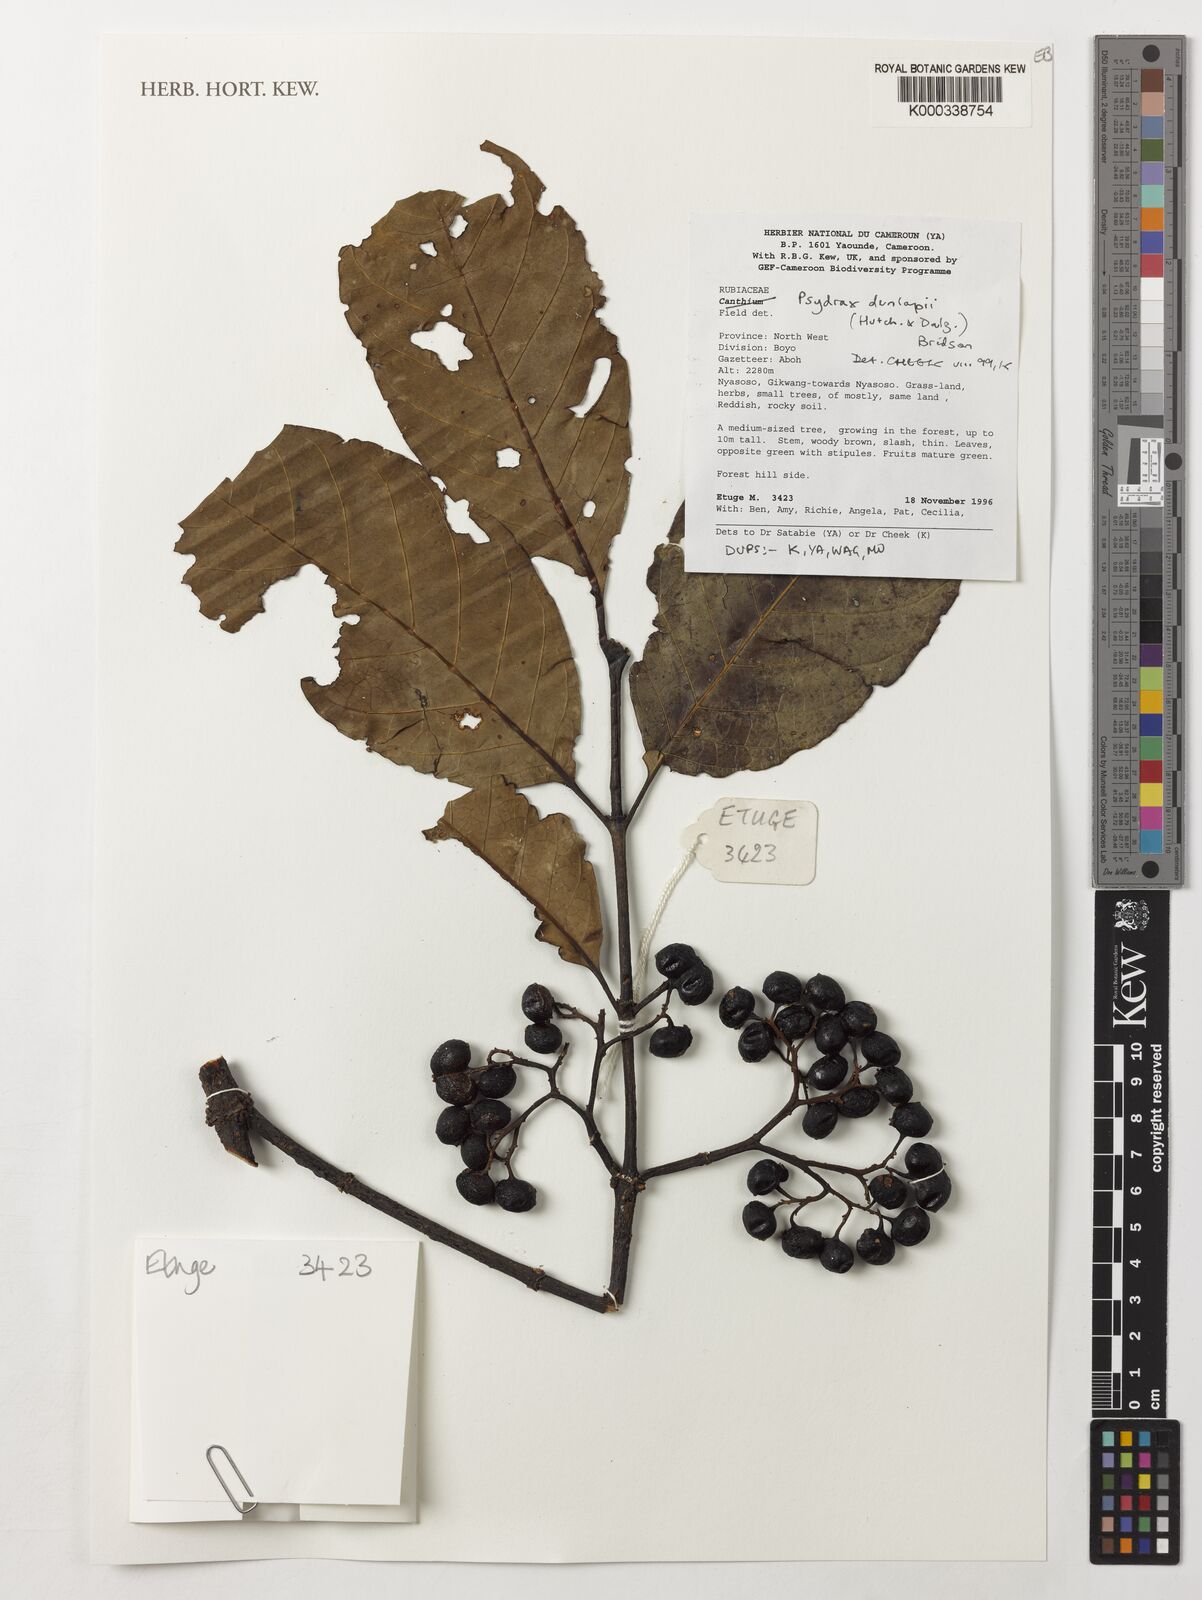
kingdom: Plantae
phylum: Tracheophyta
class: Magnoliopsida
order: Gentianales
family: Rubiaceae
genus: Psydrax
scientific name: Psydrax dunlapii
